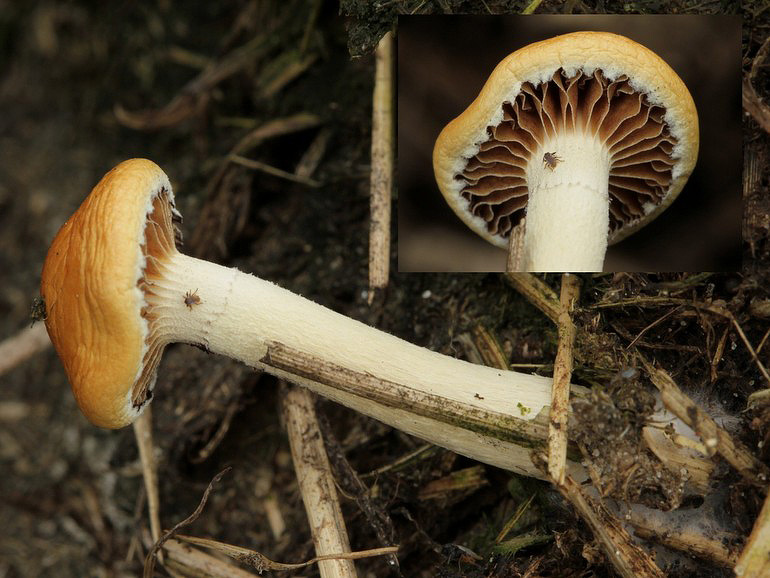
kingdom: Fungi
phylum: Basidiomycota
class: Agaricomycetes
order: Agaricales
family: Strophariaceae
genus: Deconica
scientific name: Deconica merdaria
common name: møg-stråhat
